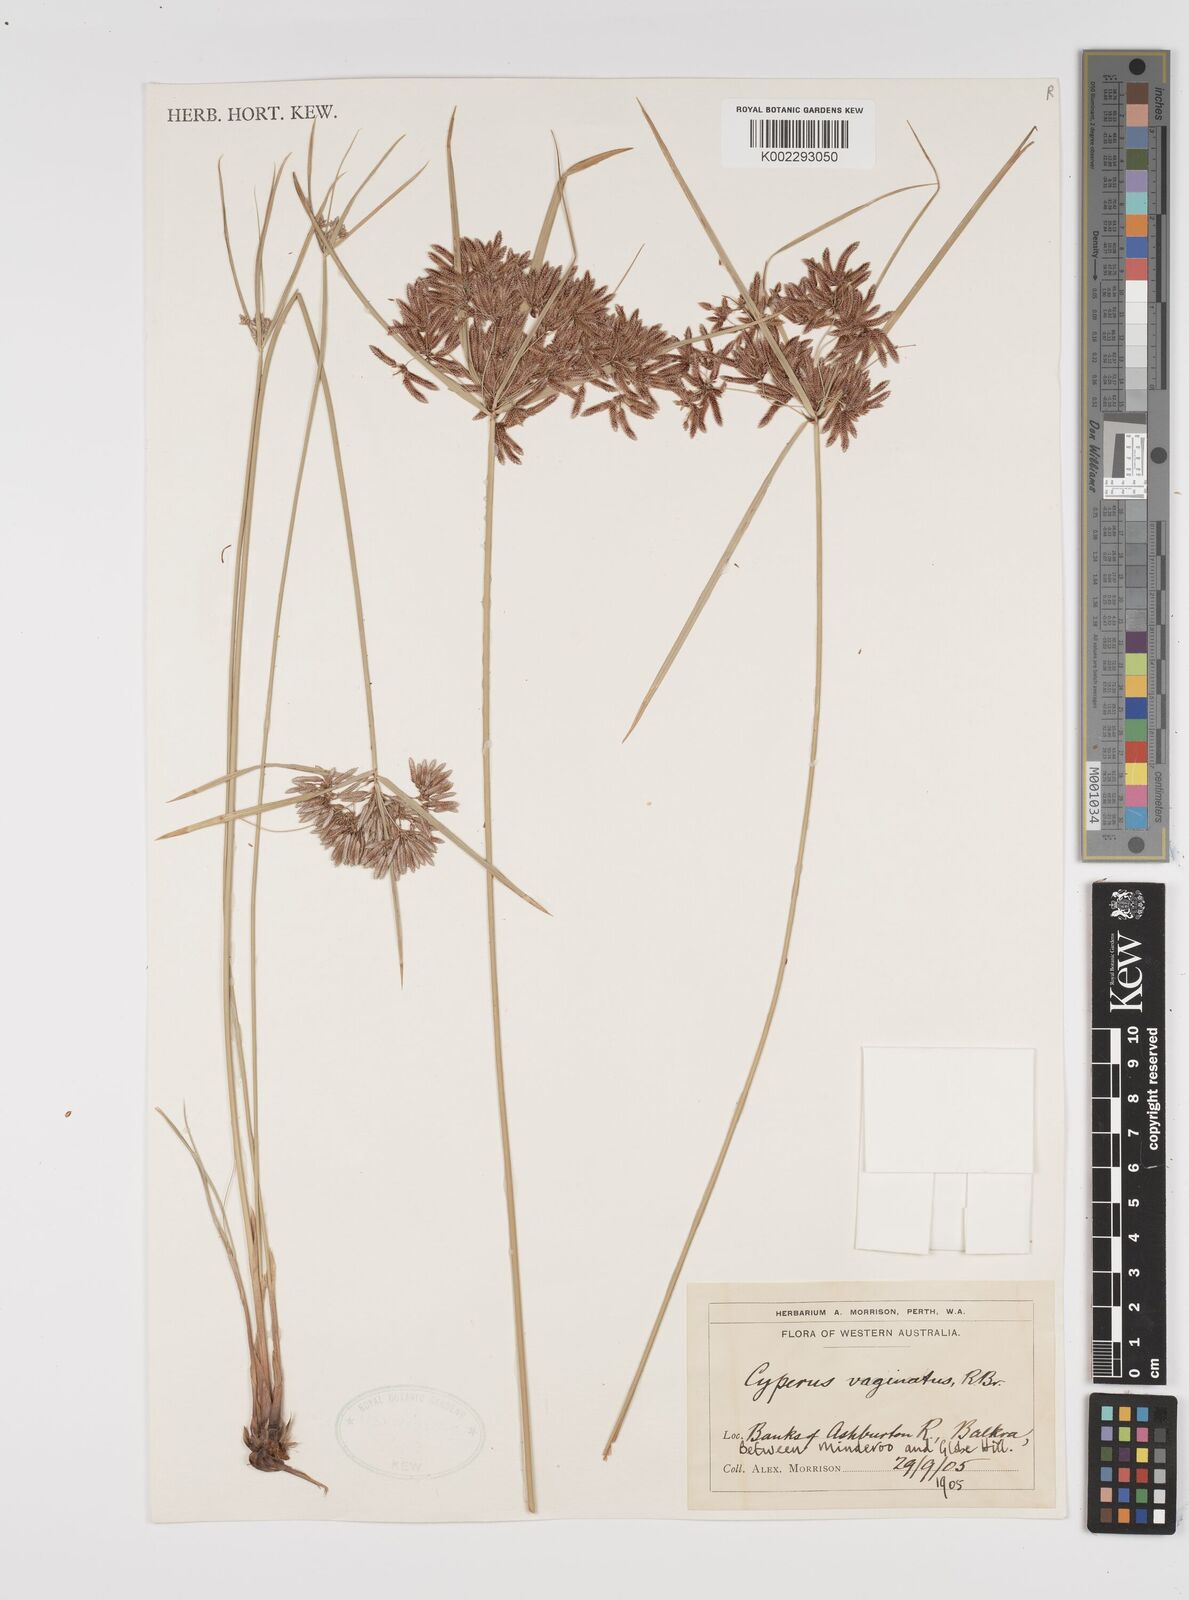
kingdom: Plantae
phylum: Tracheophyta
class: Liliopsida
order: Poales
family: Cyperaceae
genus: Cyperus
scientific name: Cyperus vaginatus
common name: Stiff-leaved flat-sedge
